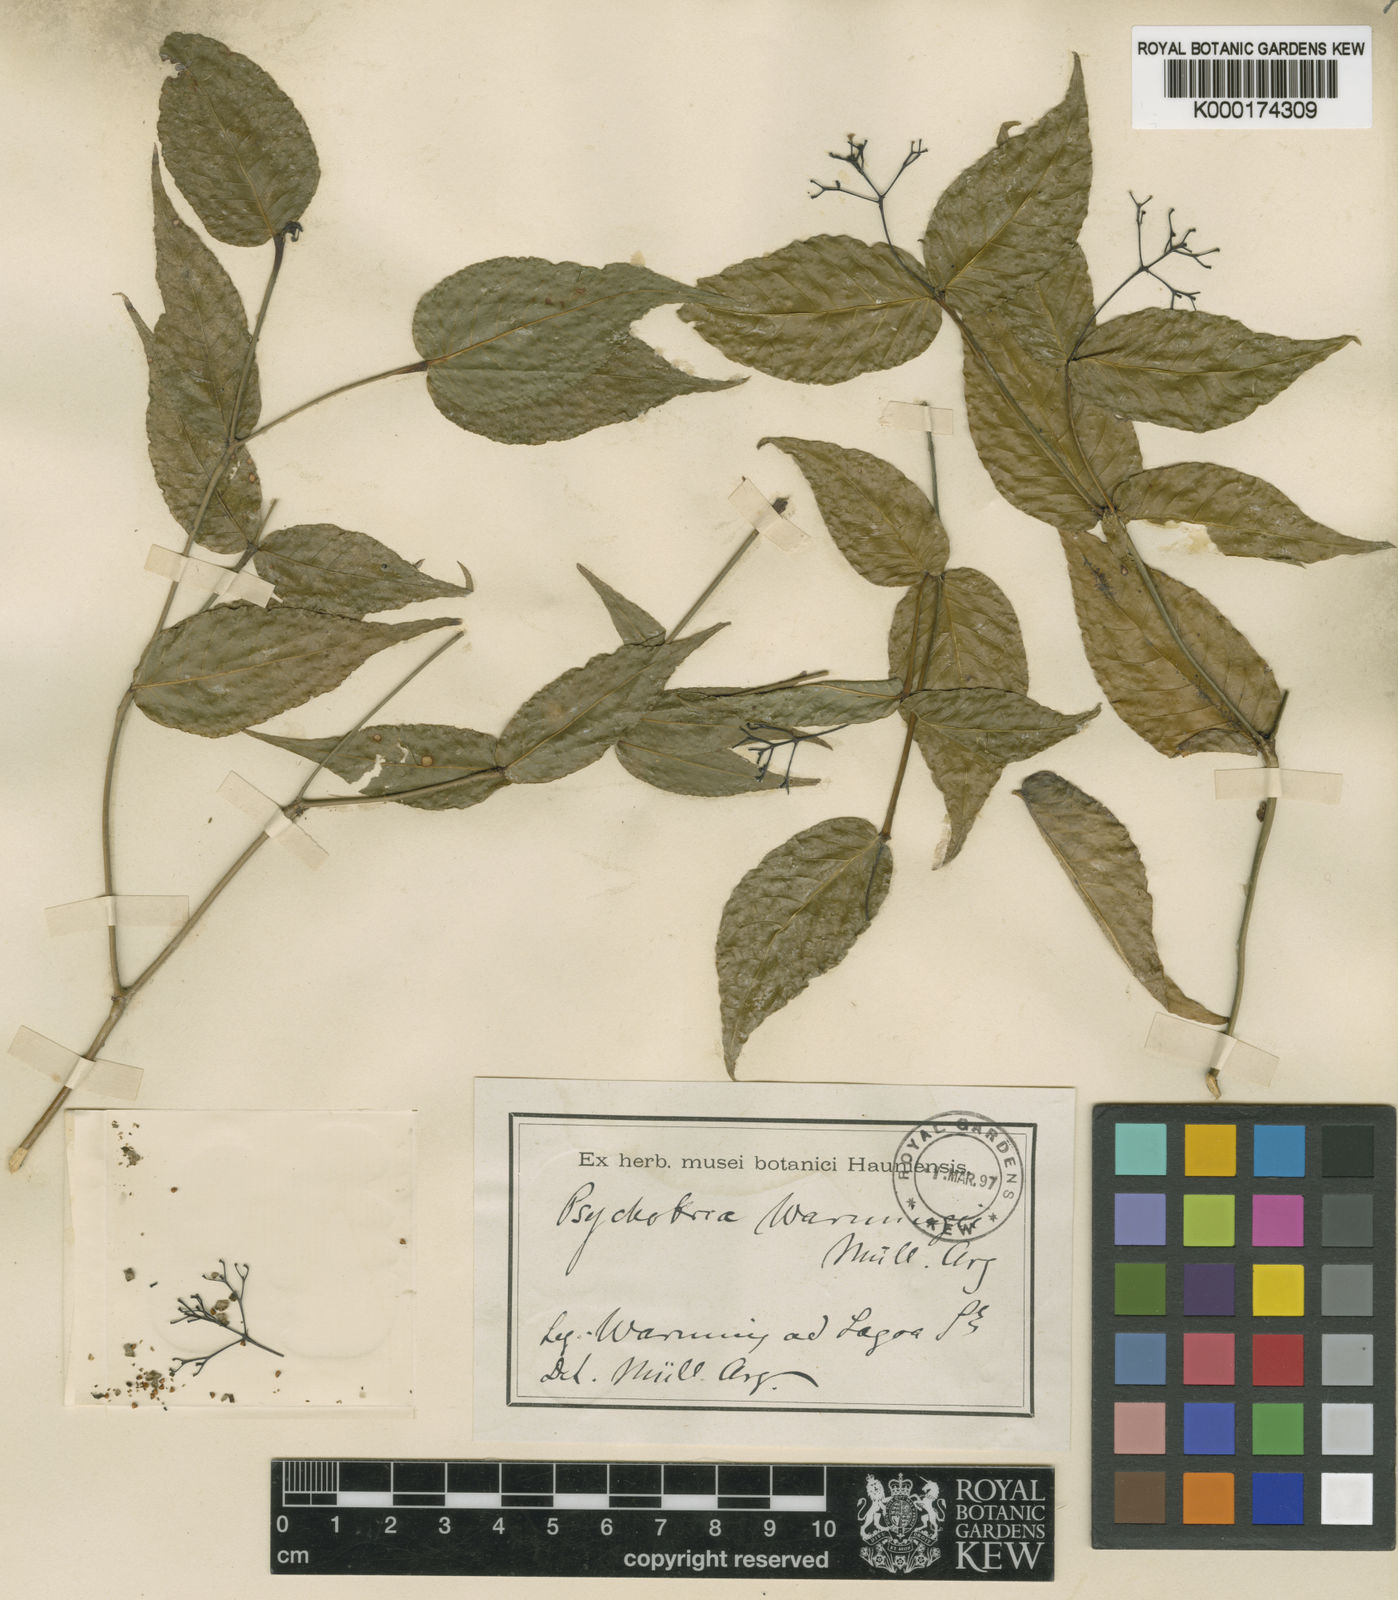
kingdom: Plantae
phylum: Tracheophyta
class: Magnoliopsida
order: Gentianales
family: Rubiaceae
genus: Psychotria
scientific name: Psychotria
